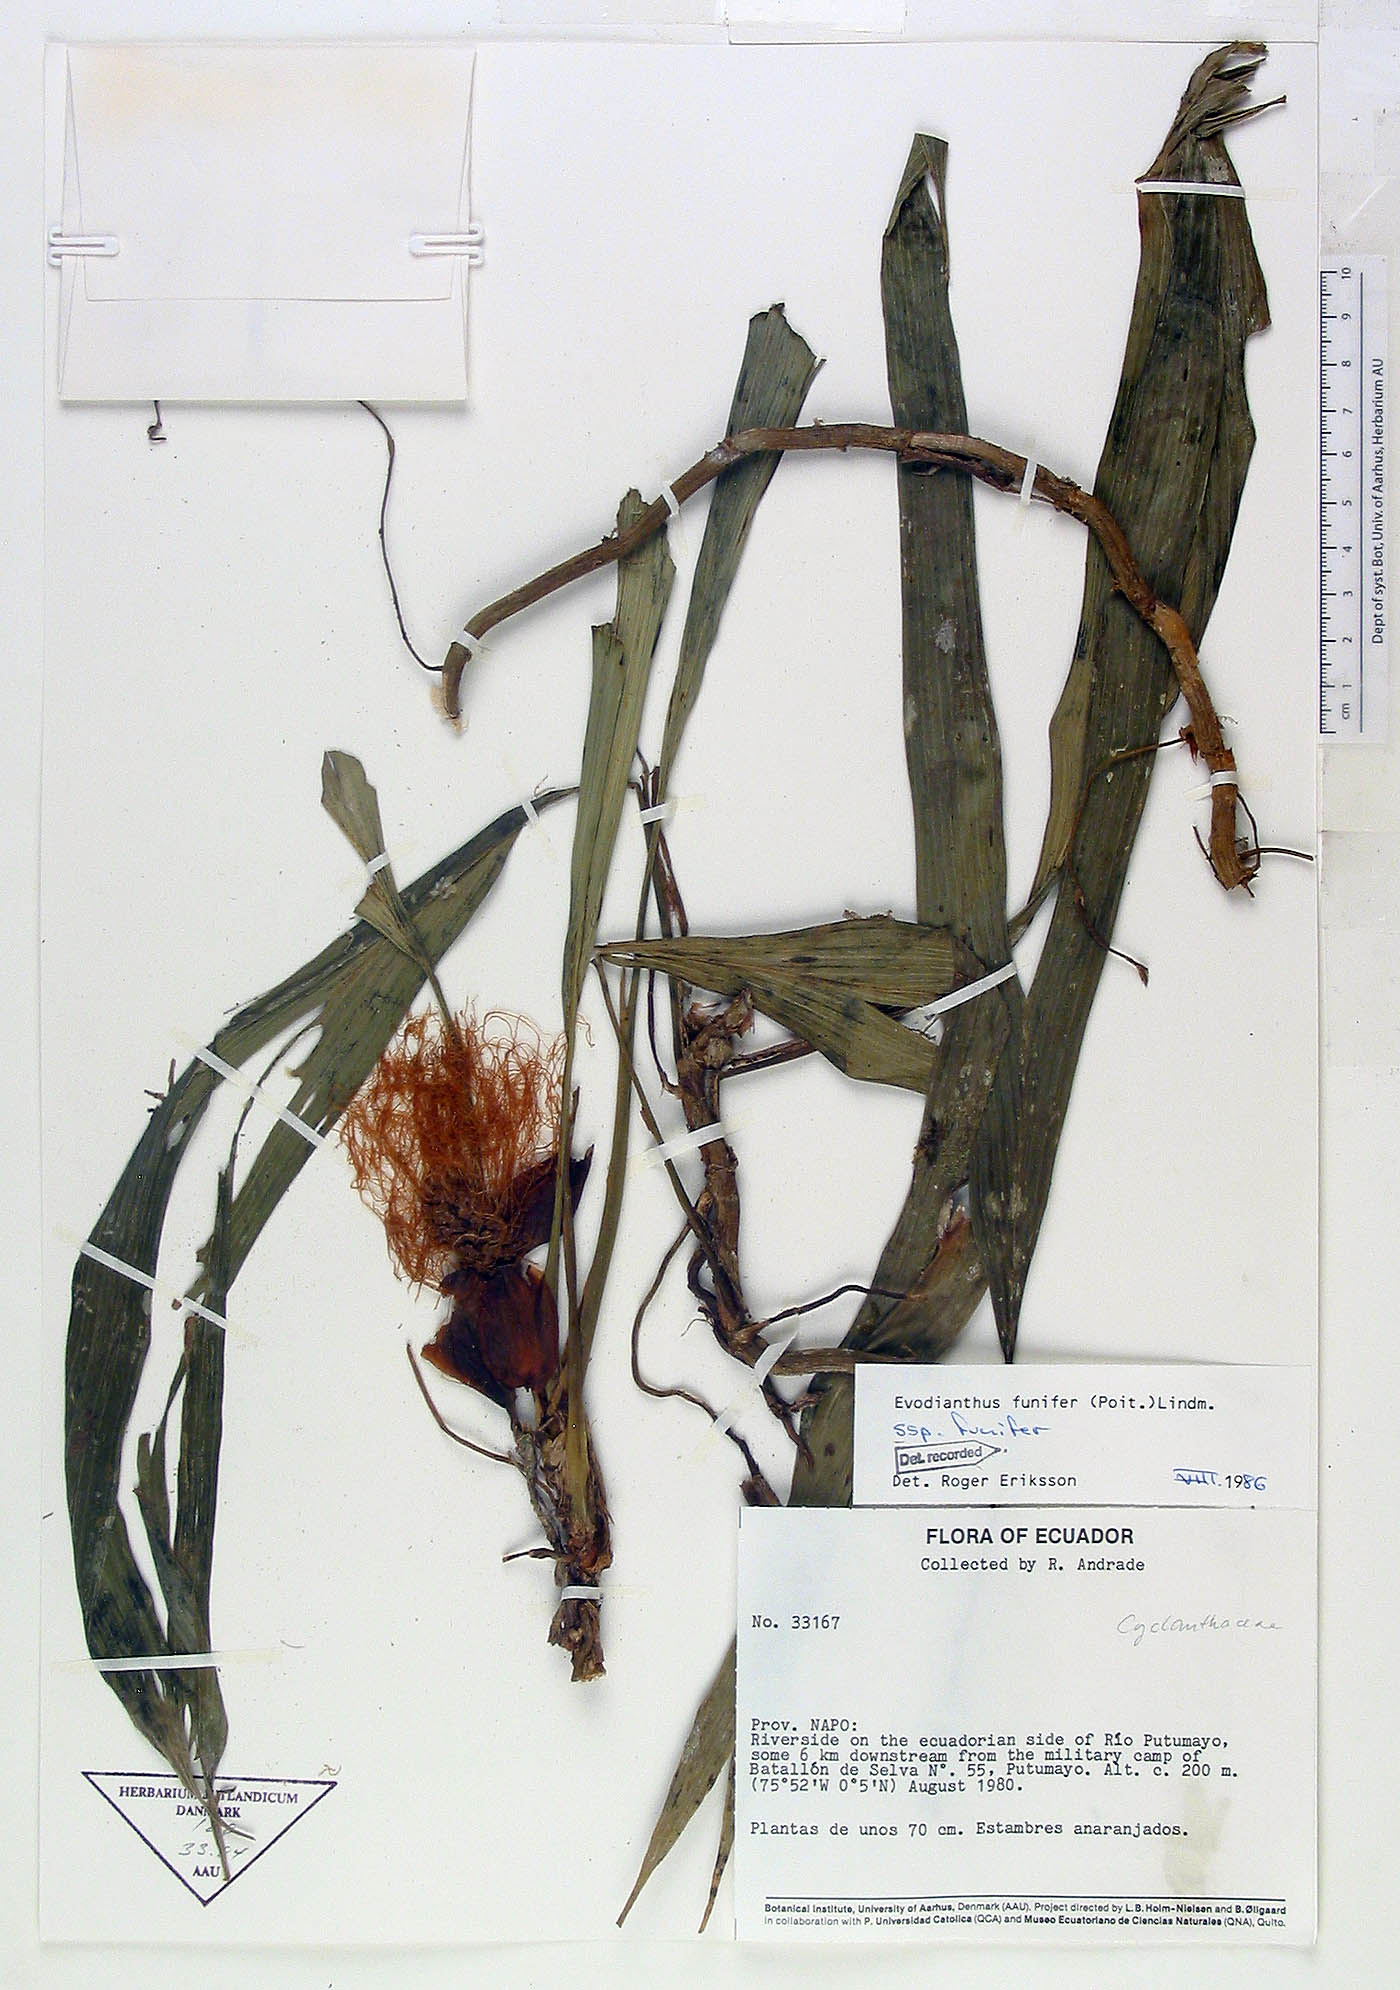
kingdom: Plantae
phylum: Tracheophyta
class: Liliopsida
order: Pandanales
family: Cyclanthaceae
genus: Evodianthus
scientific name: Evodianthus funifer
